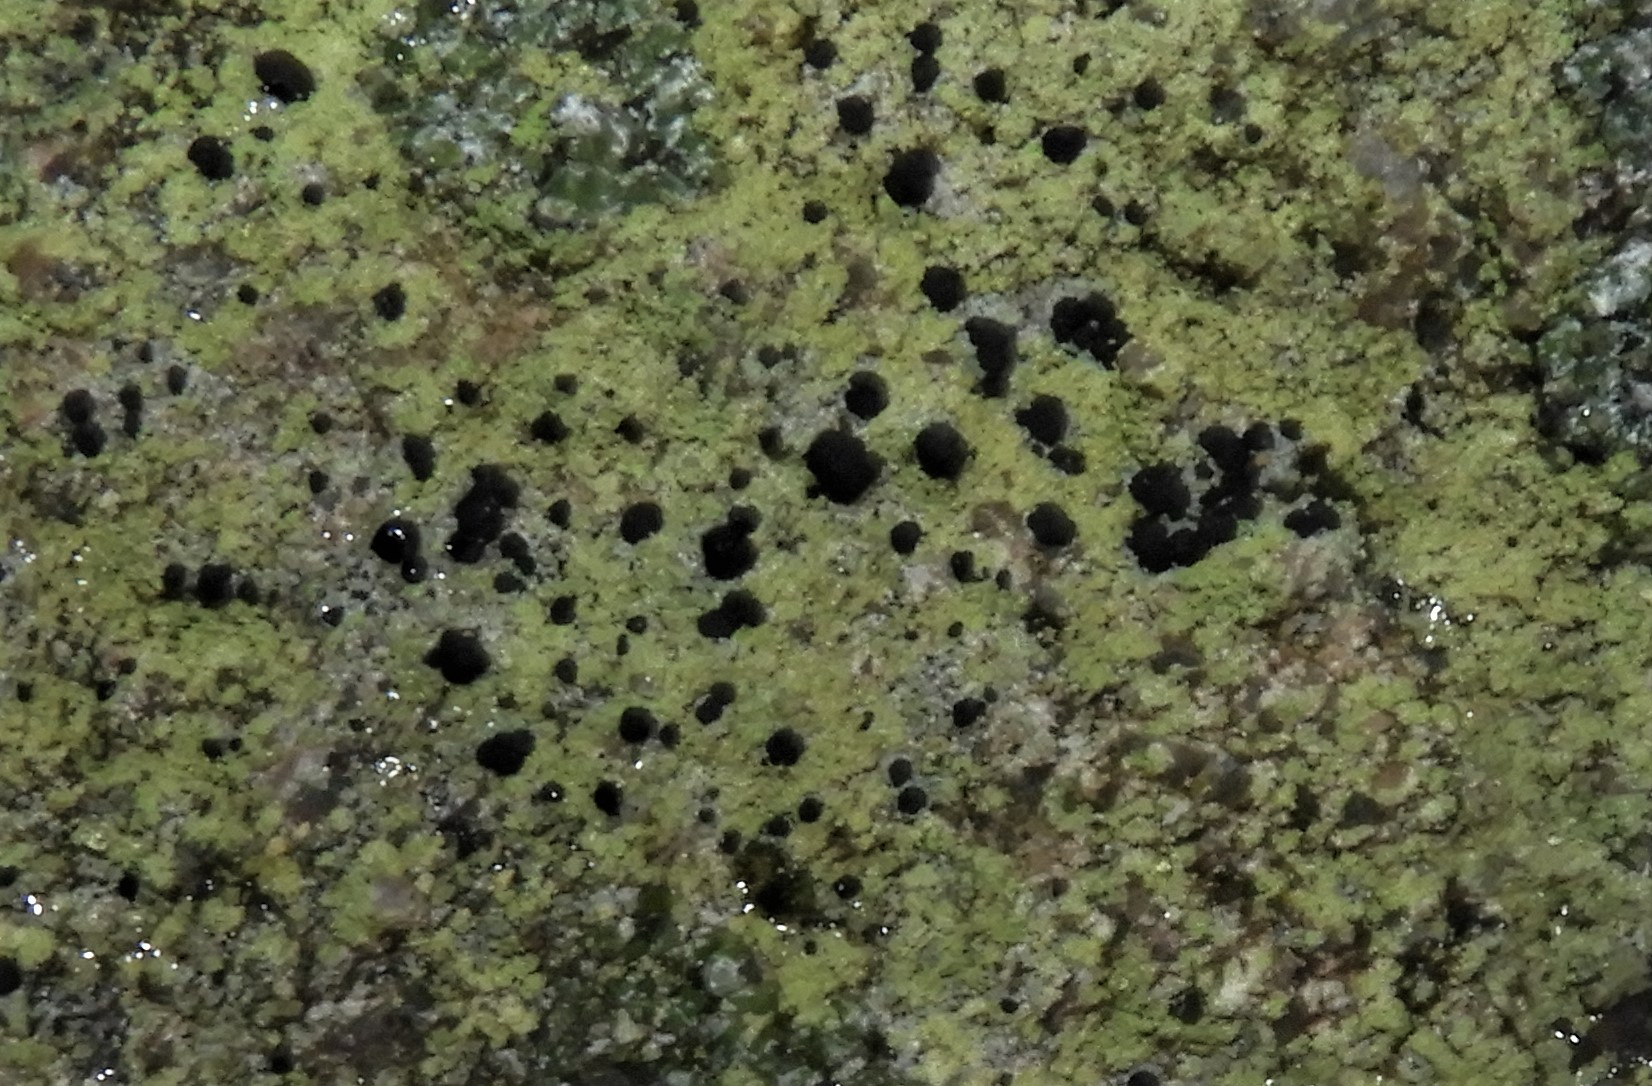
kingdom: Fungi
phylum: Ascomycota
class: Lecanoromycetes
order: Lecanorales
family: Lecanoraceae
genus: Lecidella
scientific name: Lecidella scabra
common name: skurvet skivelav
